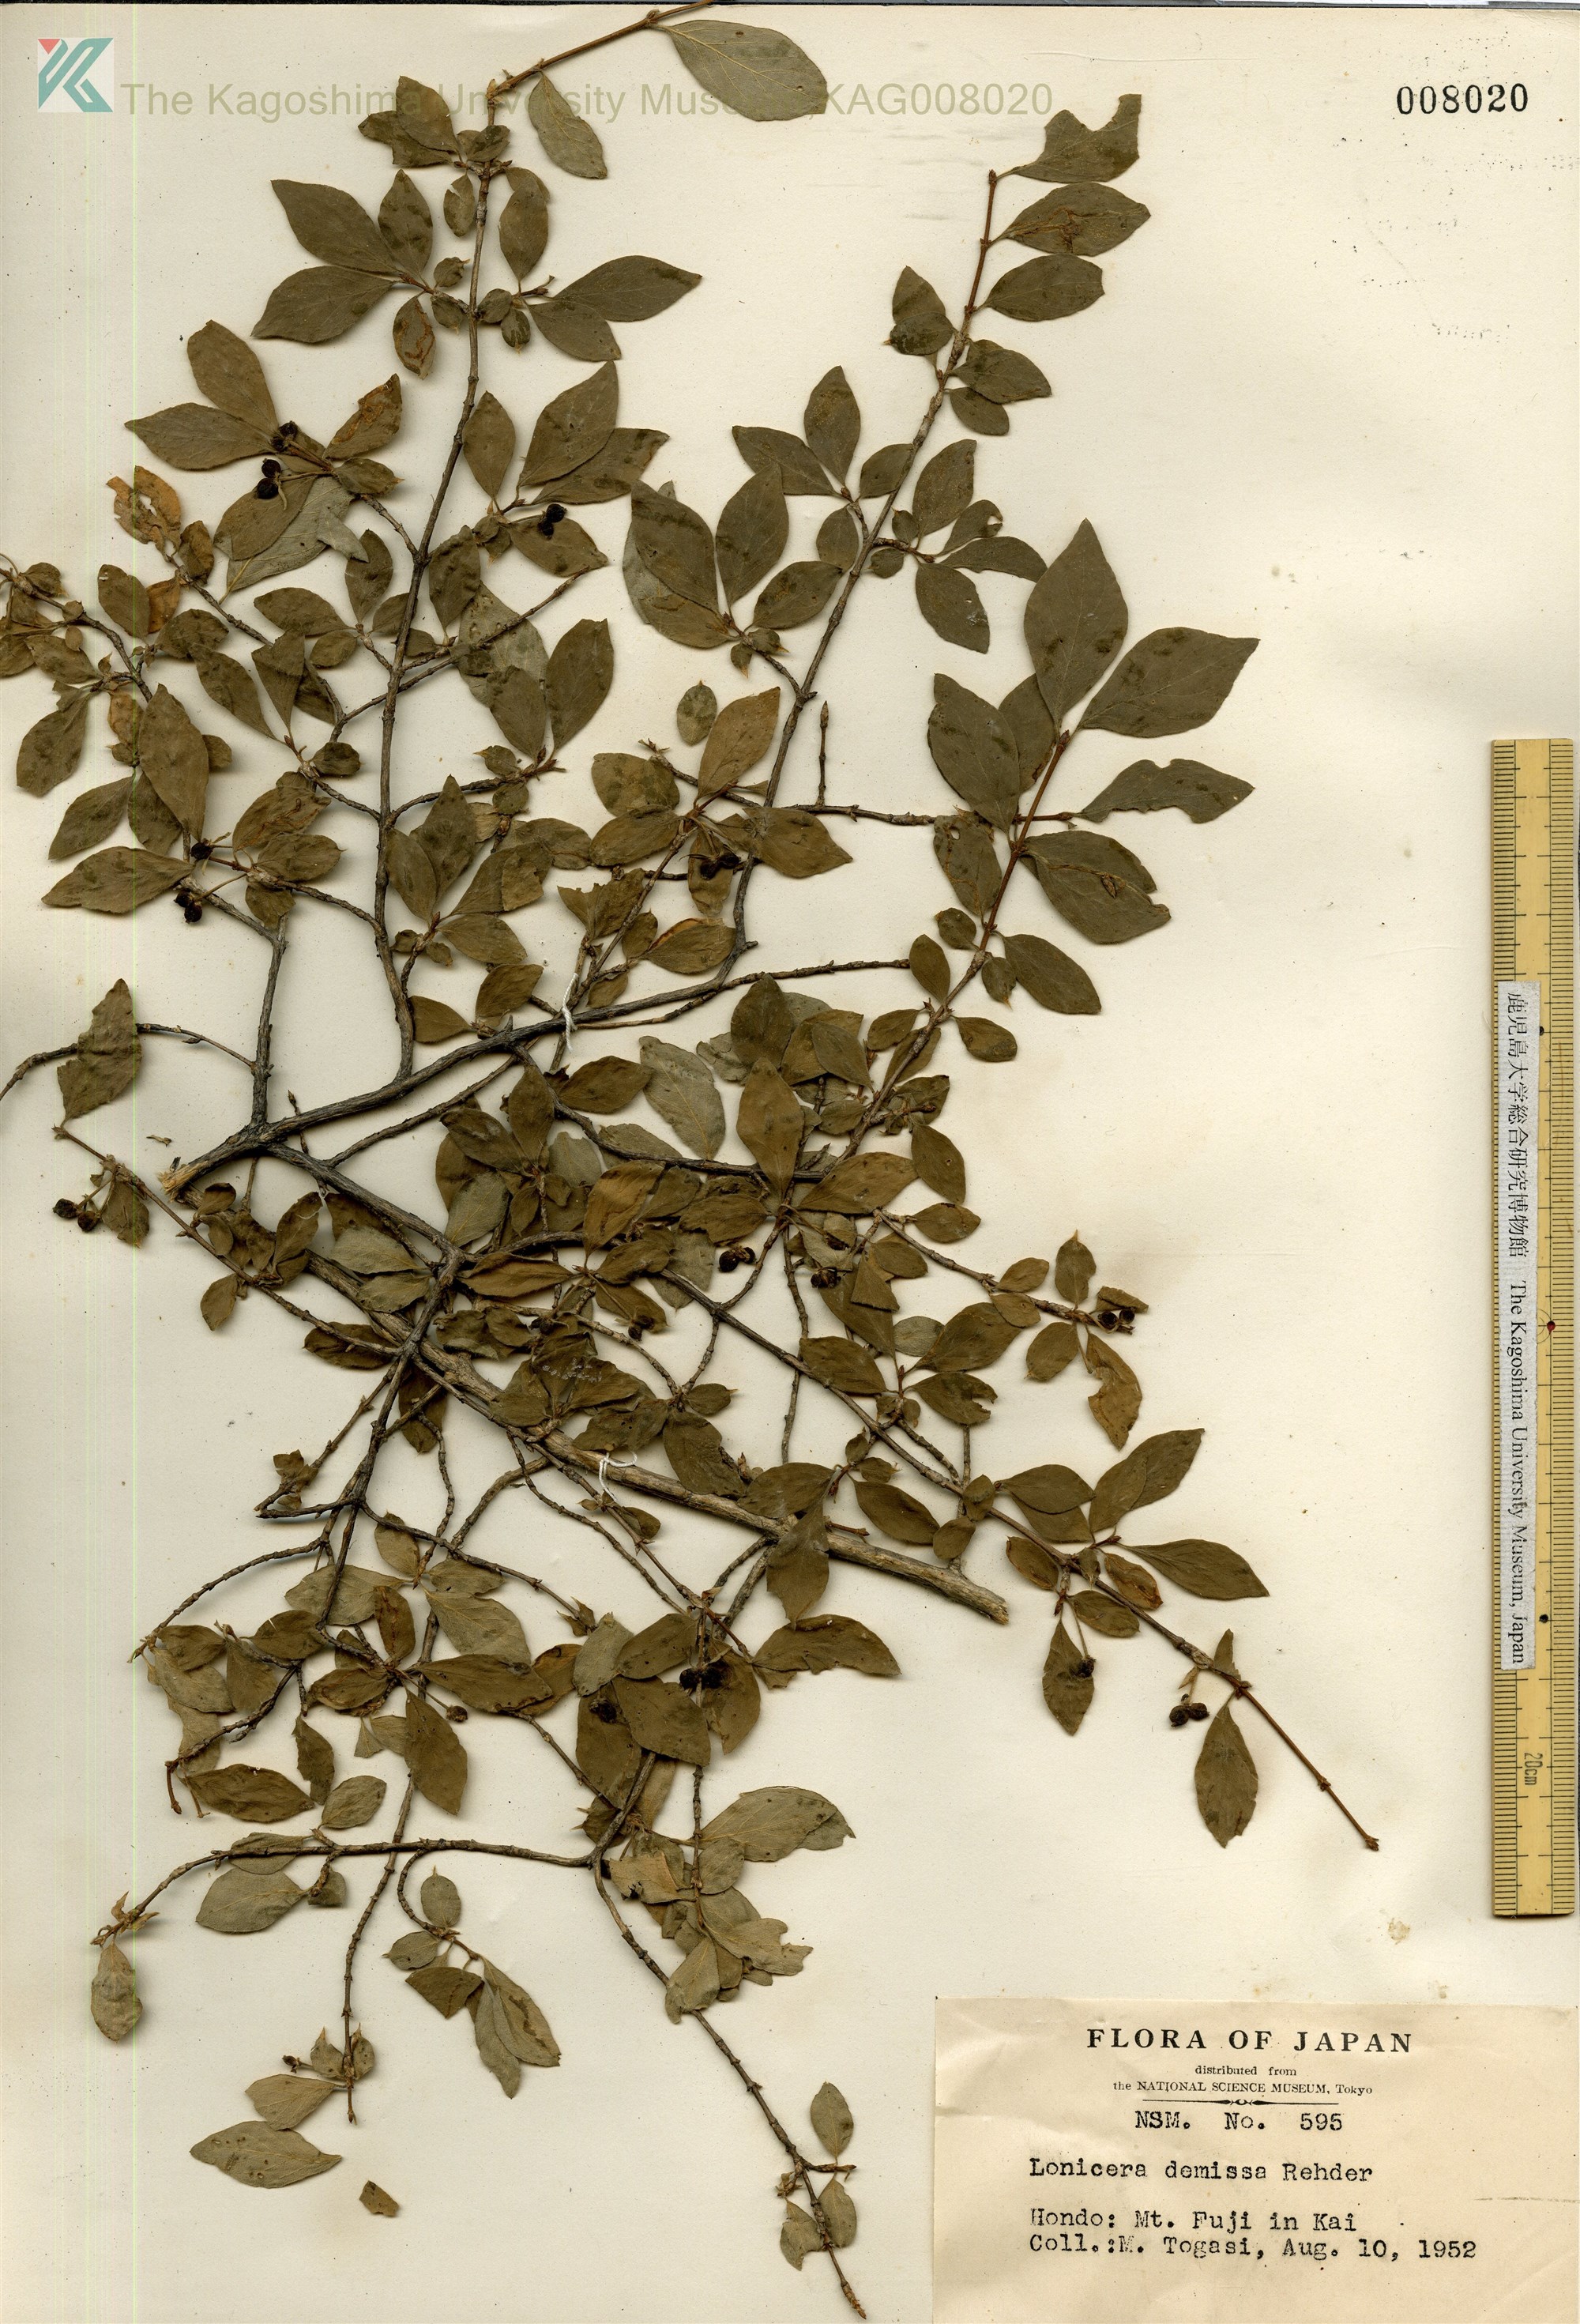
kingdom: Plantae
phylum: Tracheophyta
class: Magnoliopsida
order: Dipsacales
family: Caprifoliaceae
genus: Lonicera
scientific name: Lonicera demissa
